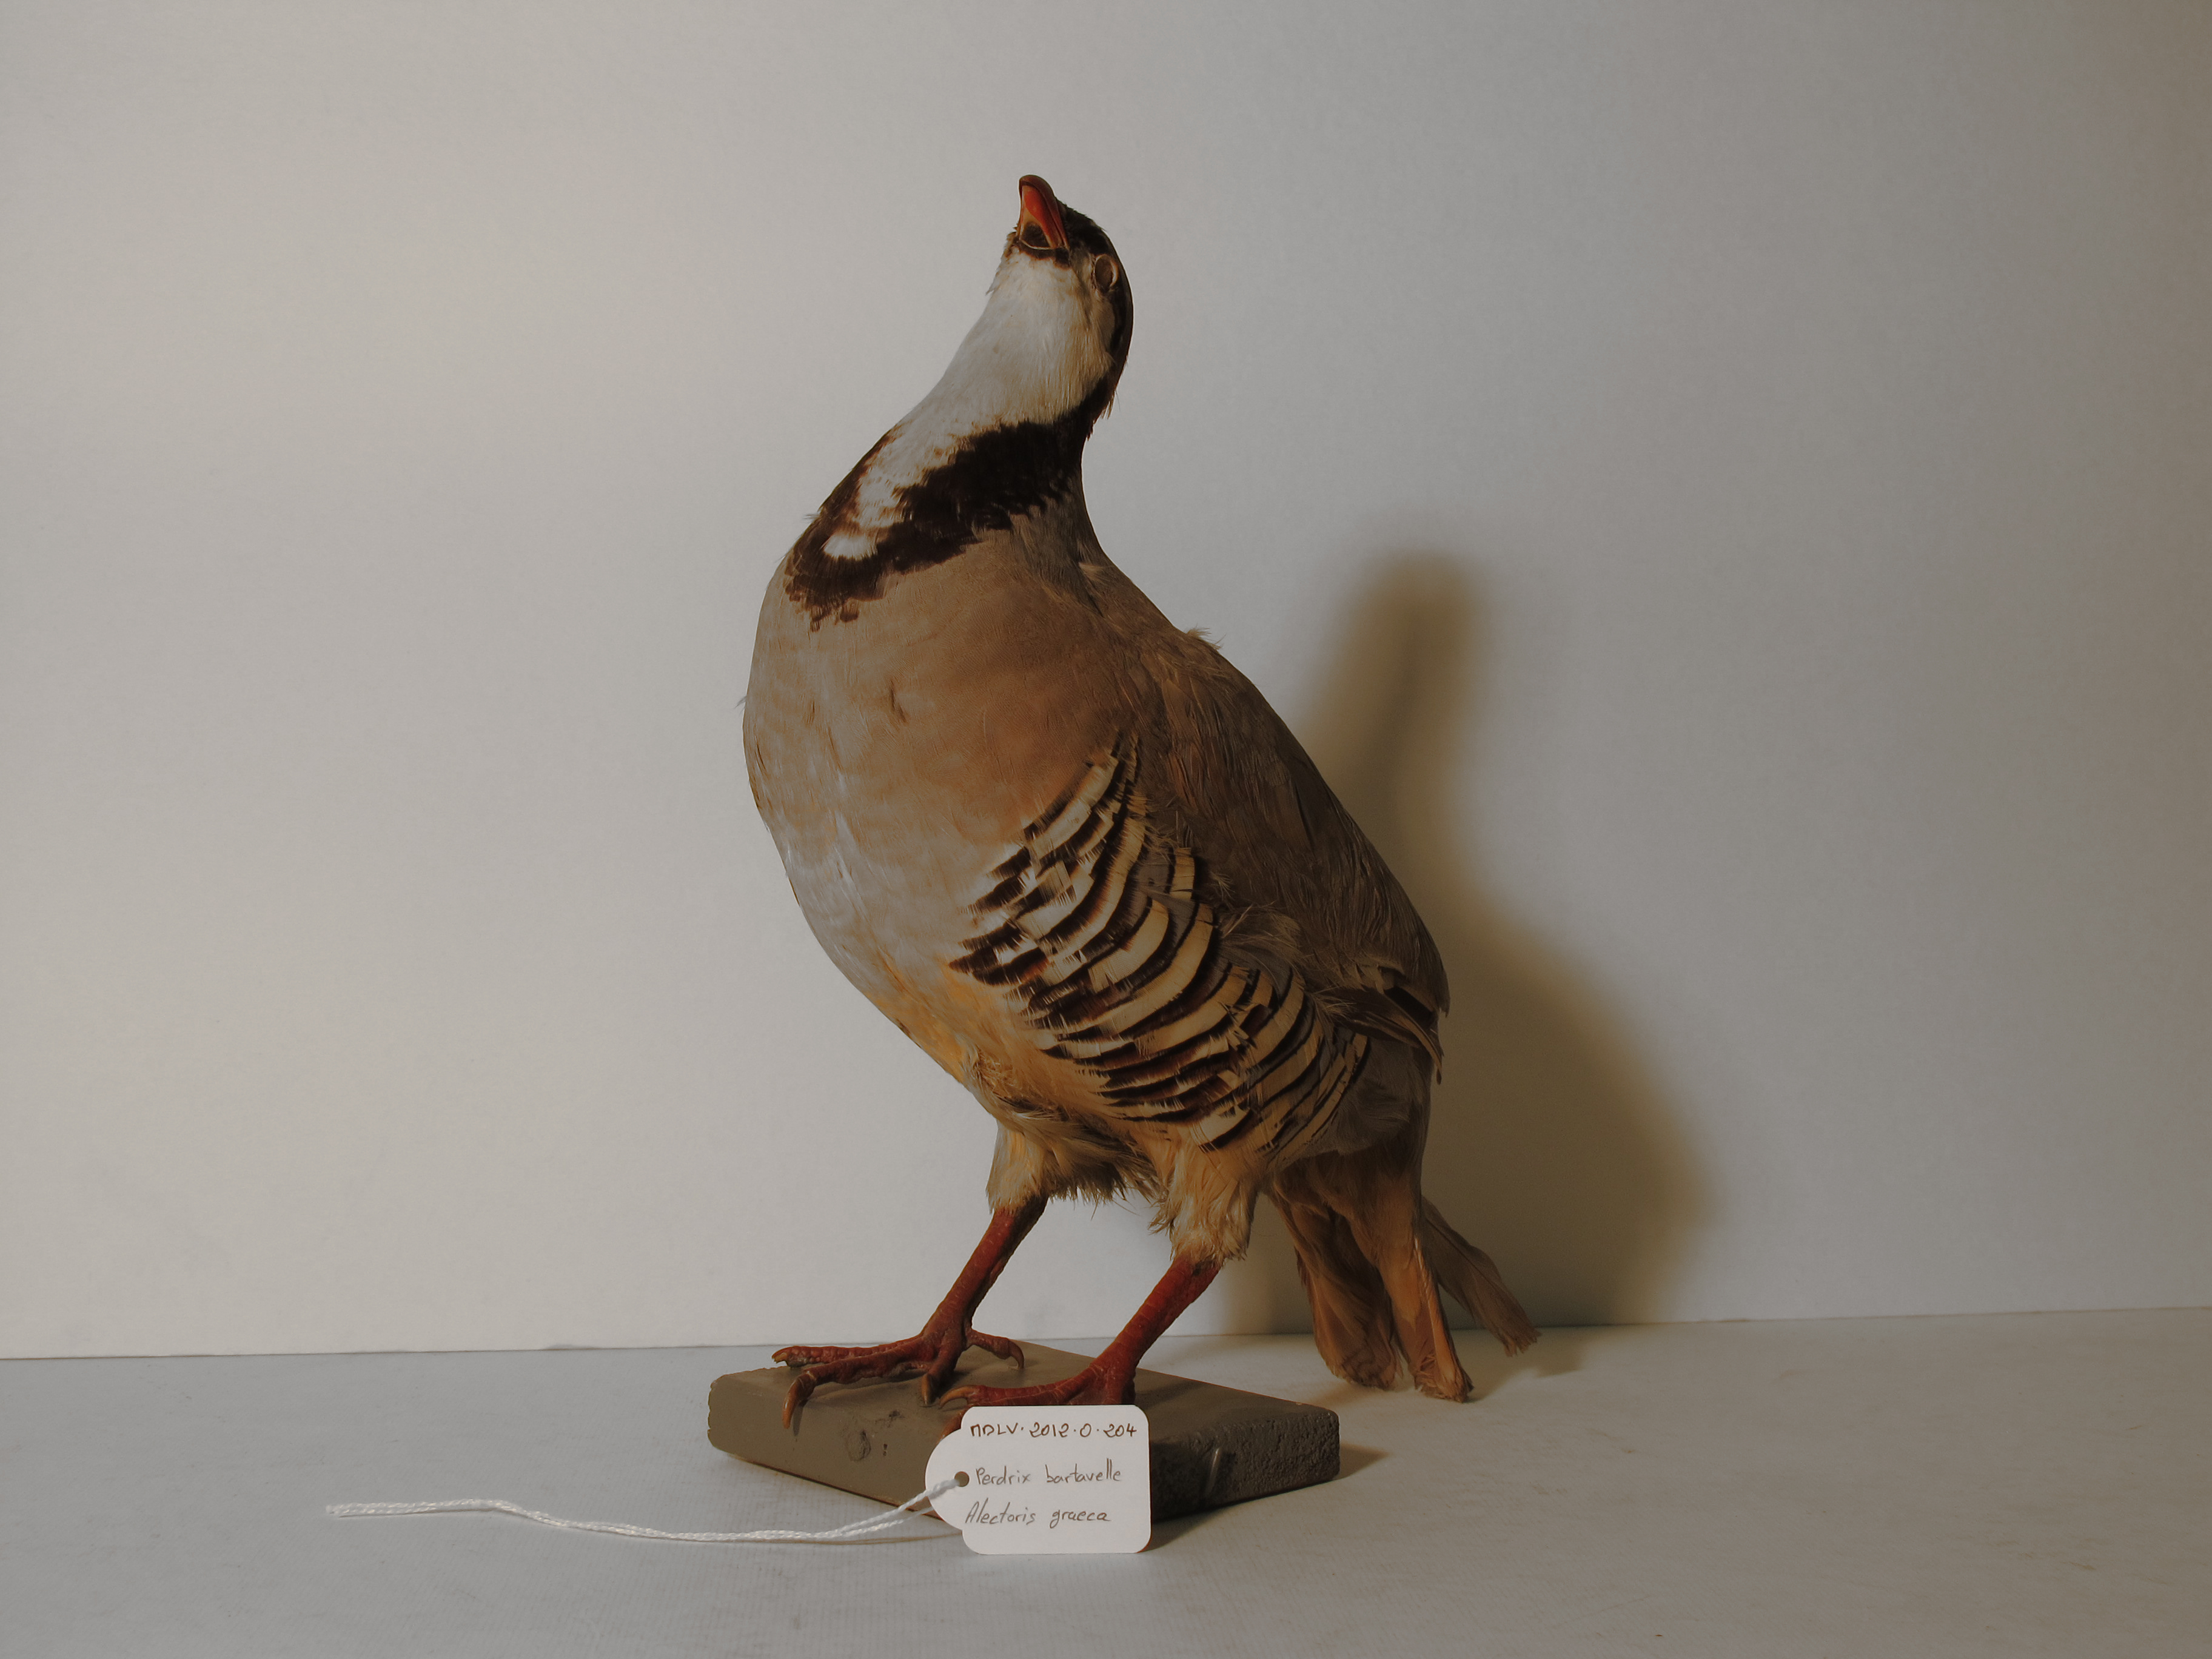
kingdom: Animalia
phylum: Chordata
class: Aves
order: Galliformes
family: Phasianidae
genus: Alectoris
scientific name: Alectoris graeca
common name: Rock Partridge
